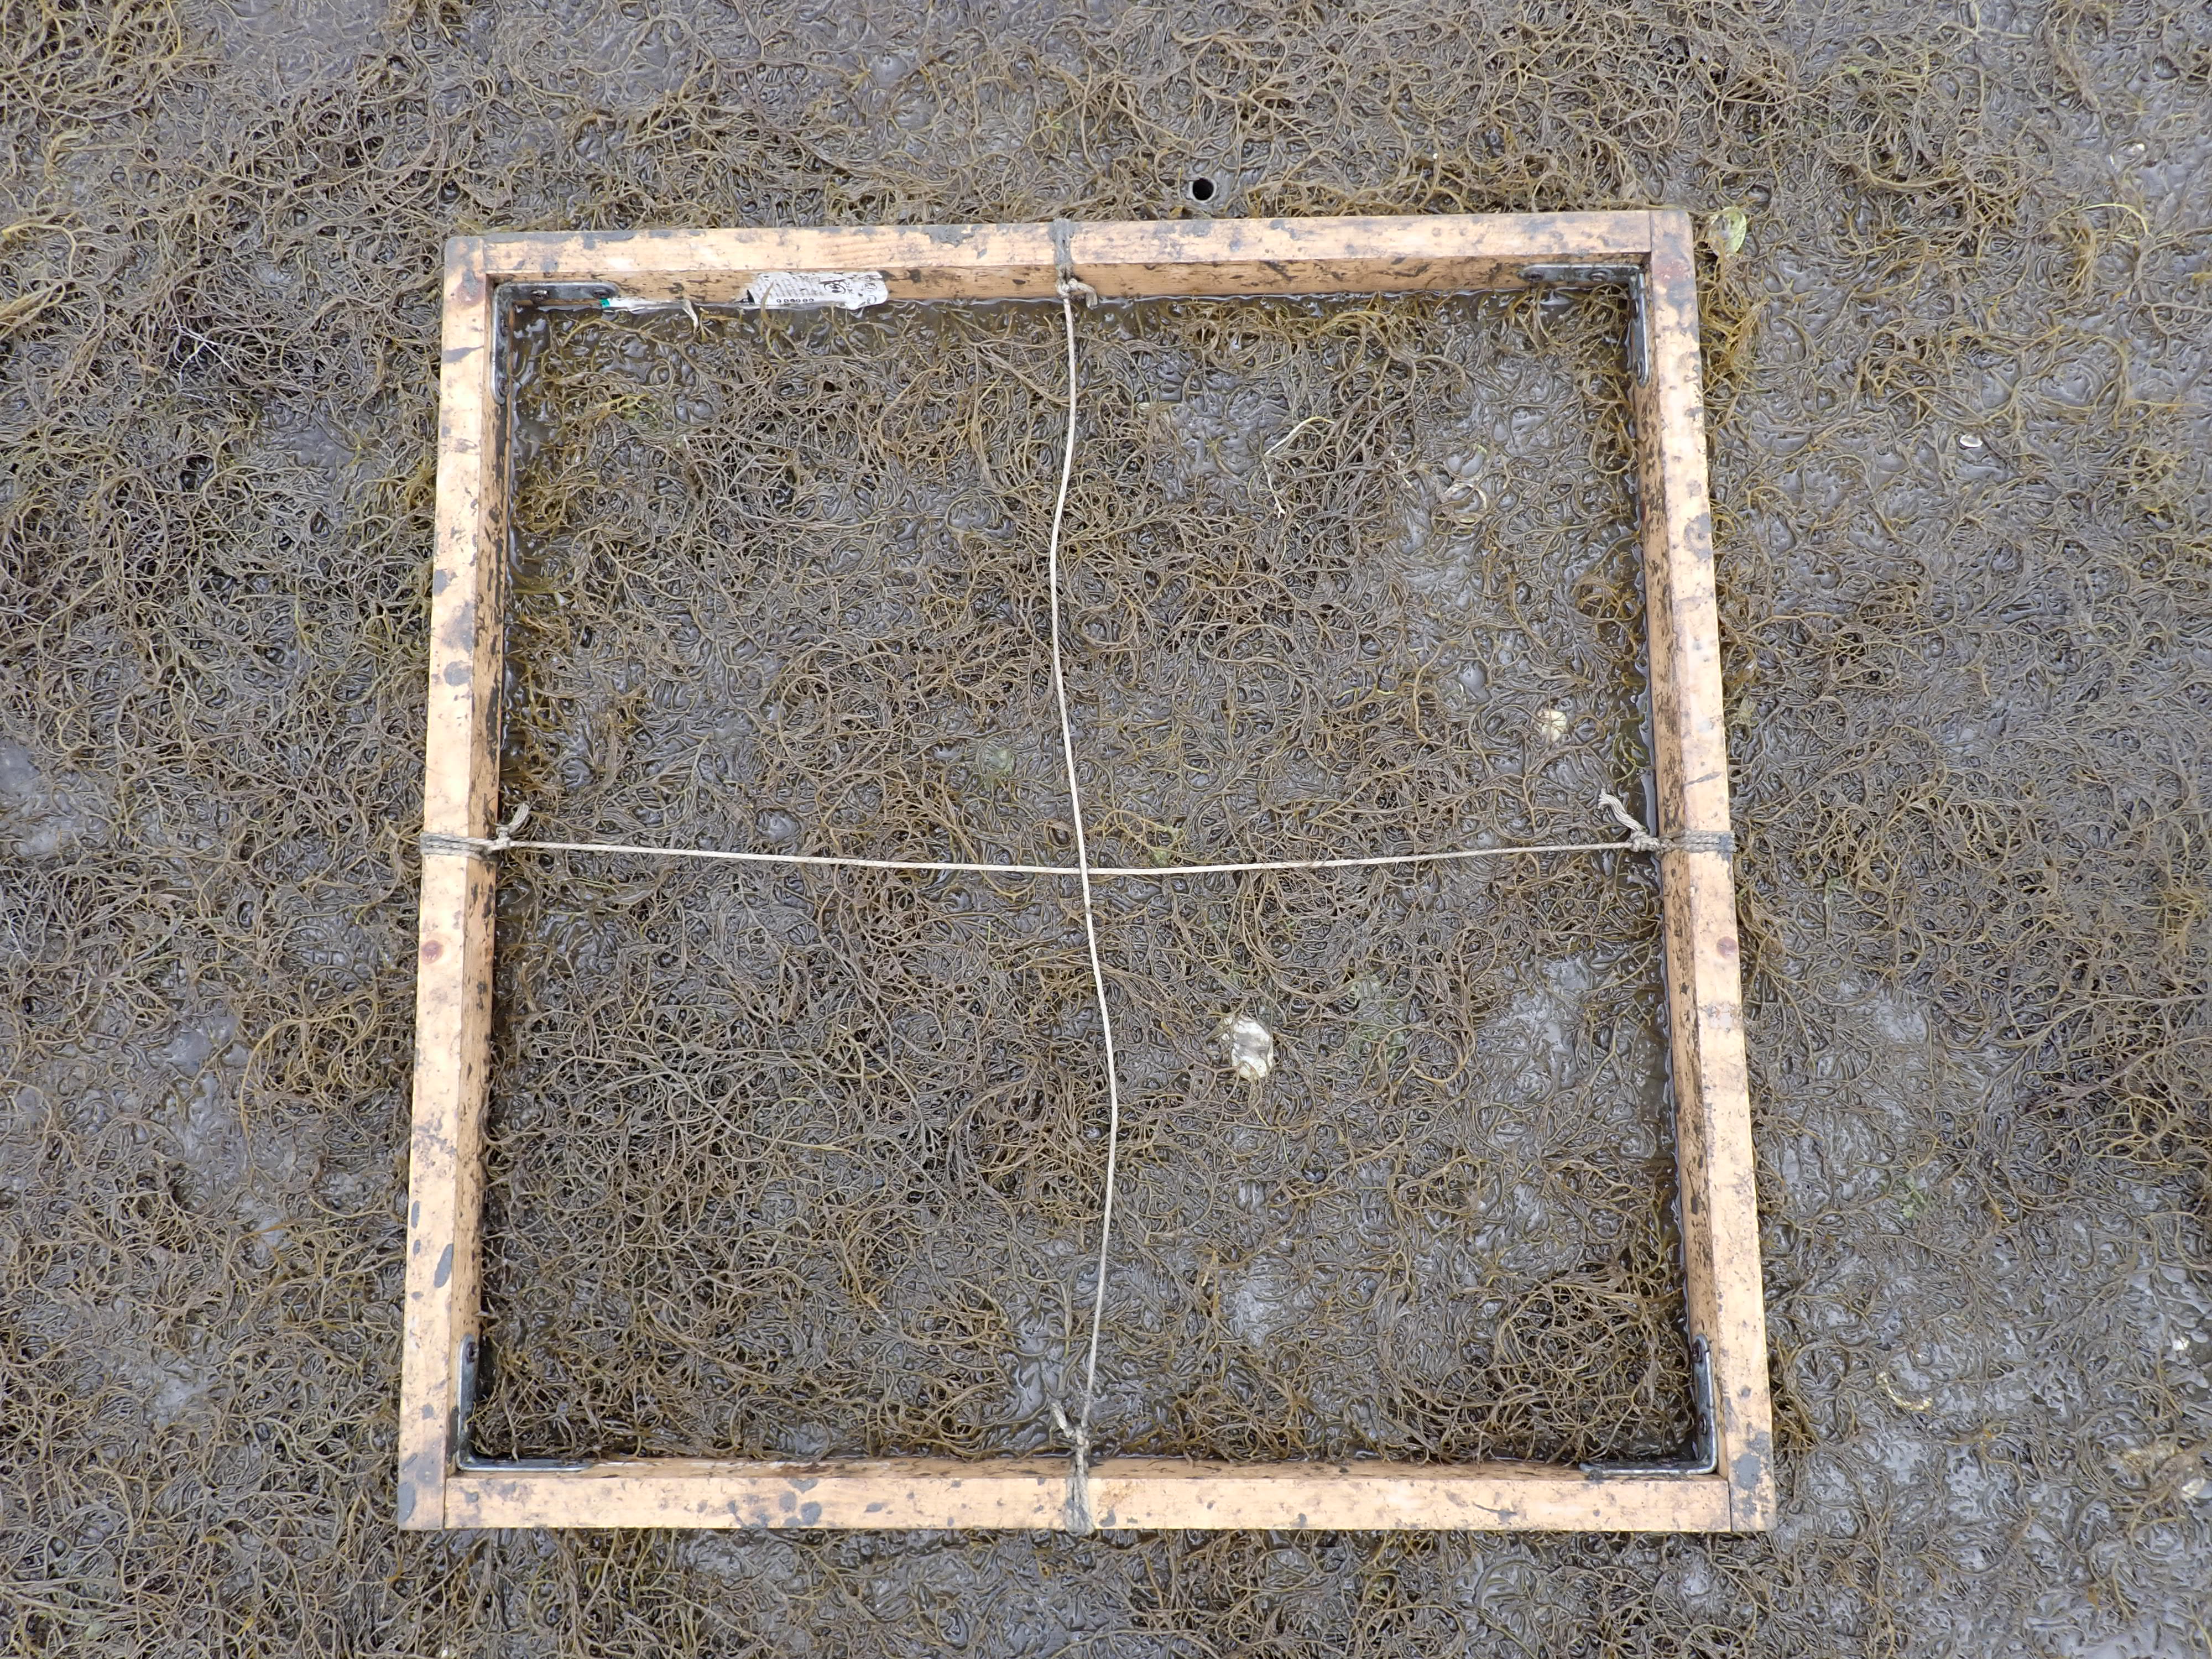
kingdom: Plantae
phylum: Rhodophyta
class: Florideophyceae
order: Gracilariales
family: Gracilariaceae
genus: Gracilaria
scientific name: Gracilaria vermiculophylla
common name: Algae
